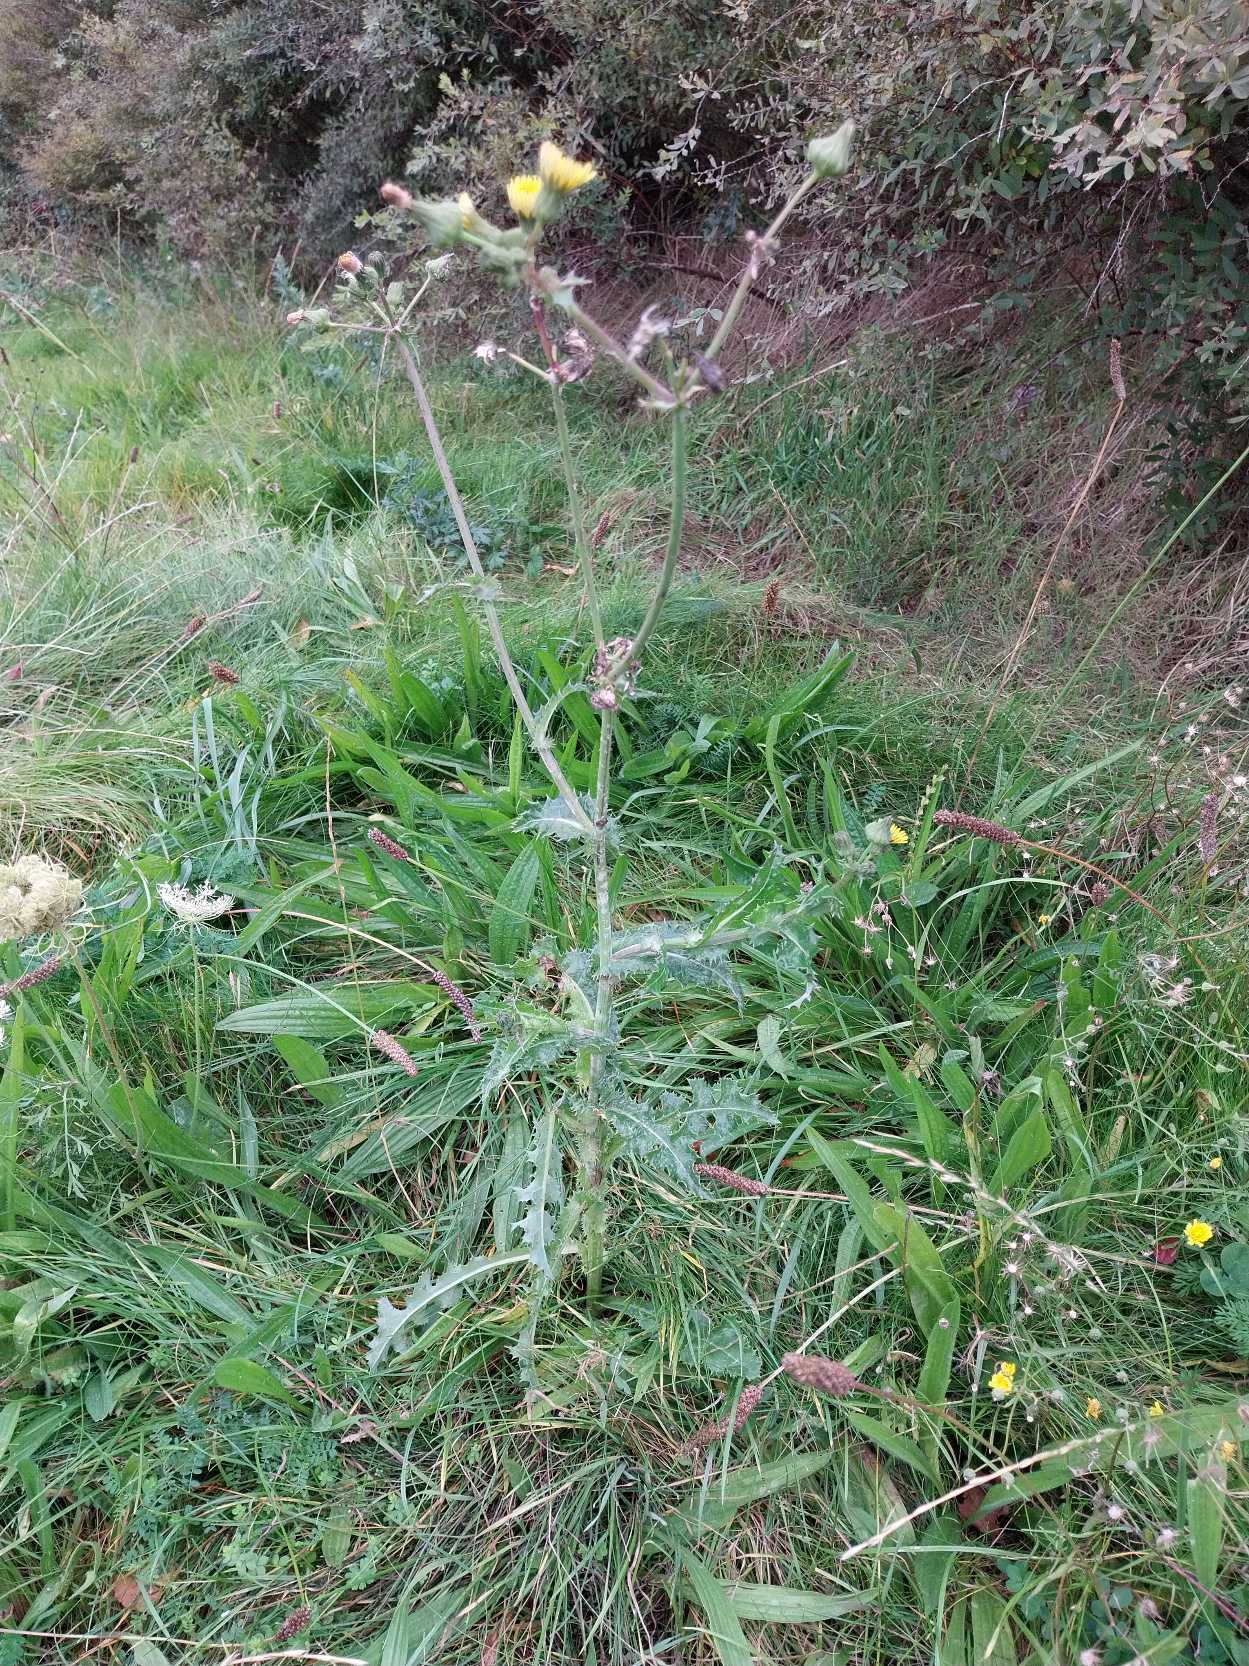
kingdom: Plantae
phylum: Tracheophyta
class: Magnoliopsida
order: Asterales
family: Asteraceae
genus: Sonchus
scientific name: Sonchus asper
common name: Ru svinemælk
